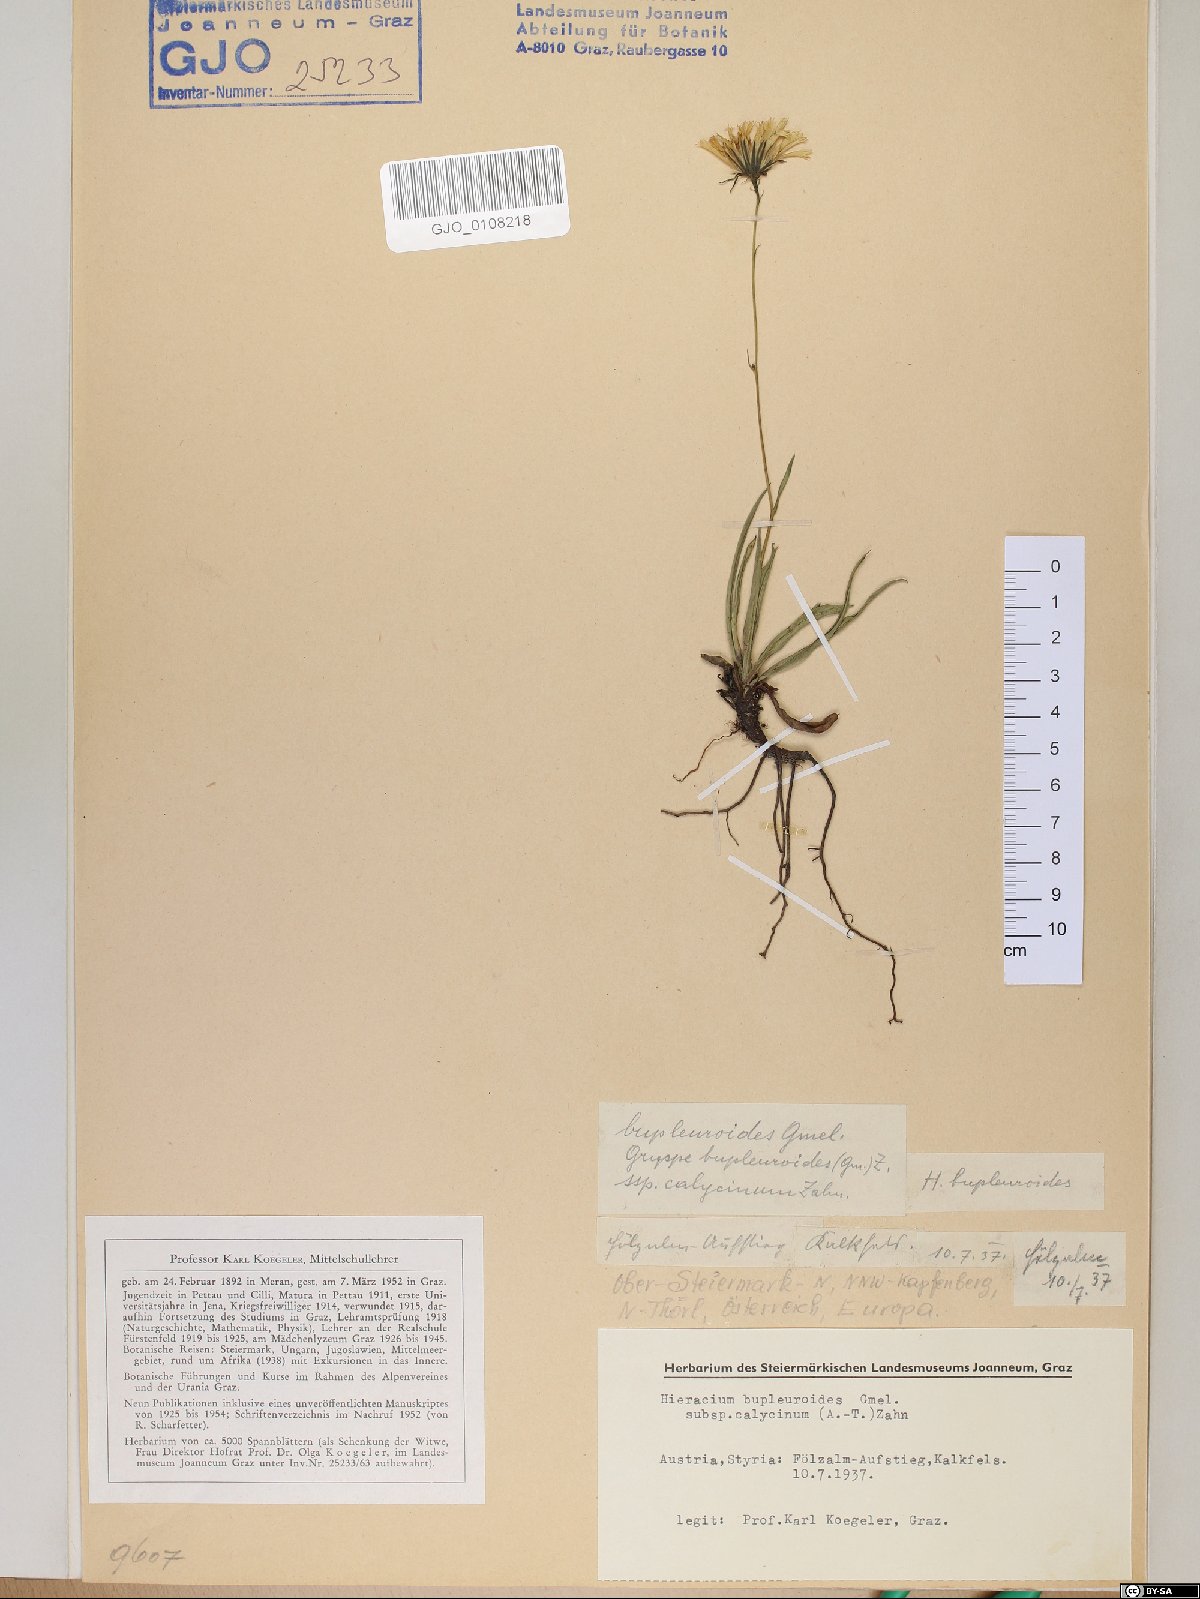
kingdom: Plantae
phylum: Tracheophyta
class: Magnoliopsida
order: Asterales
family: Asteraceae
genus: Hieracium
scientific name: Hieracium bupleuroides
